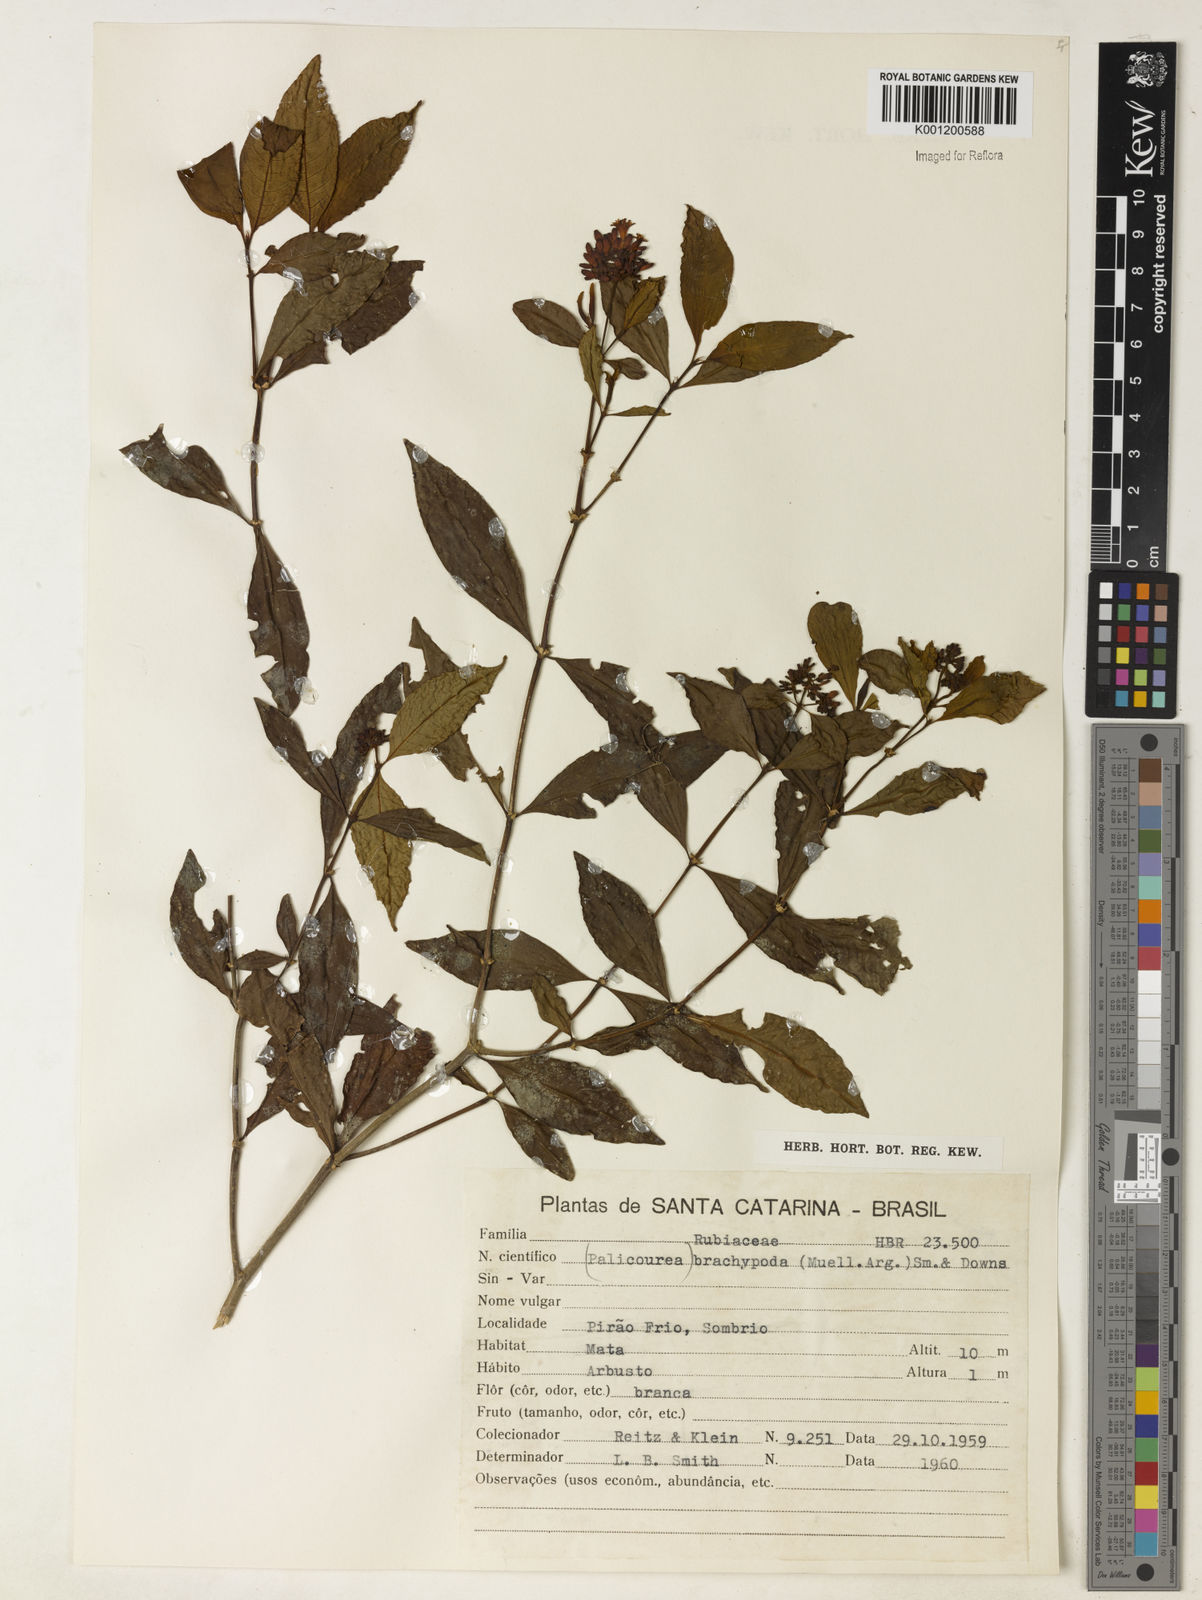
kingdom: Plantae
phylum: Tracheophyta
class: Magnoliopsida
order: Gentianales
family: Rubiaceae
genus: Psychotria
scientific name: Psychotria
